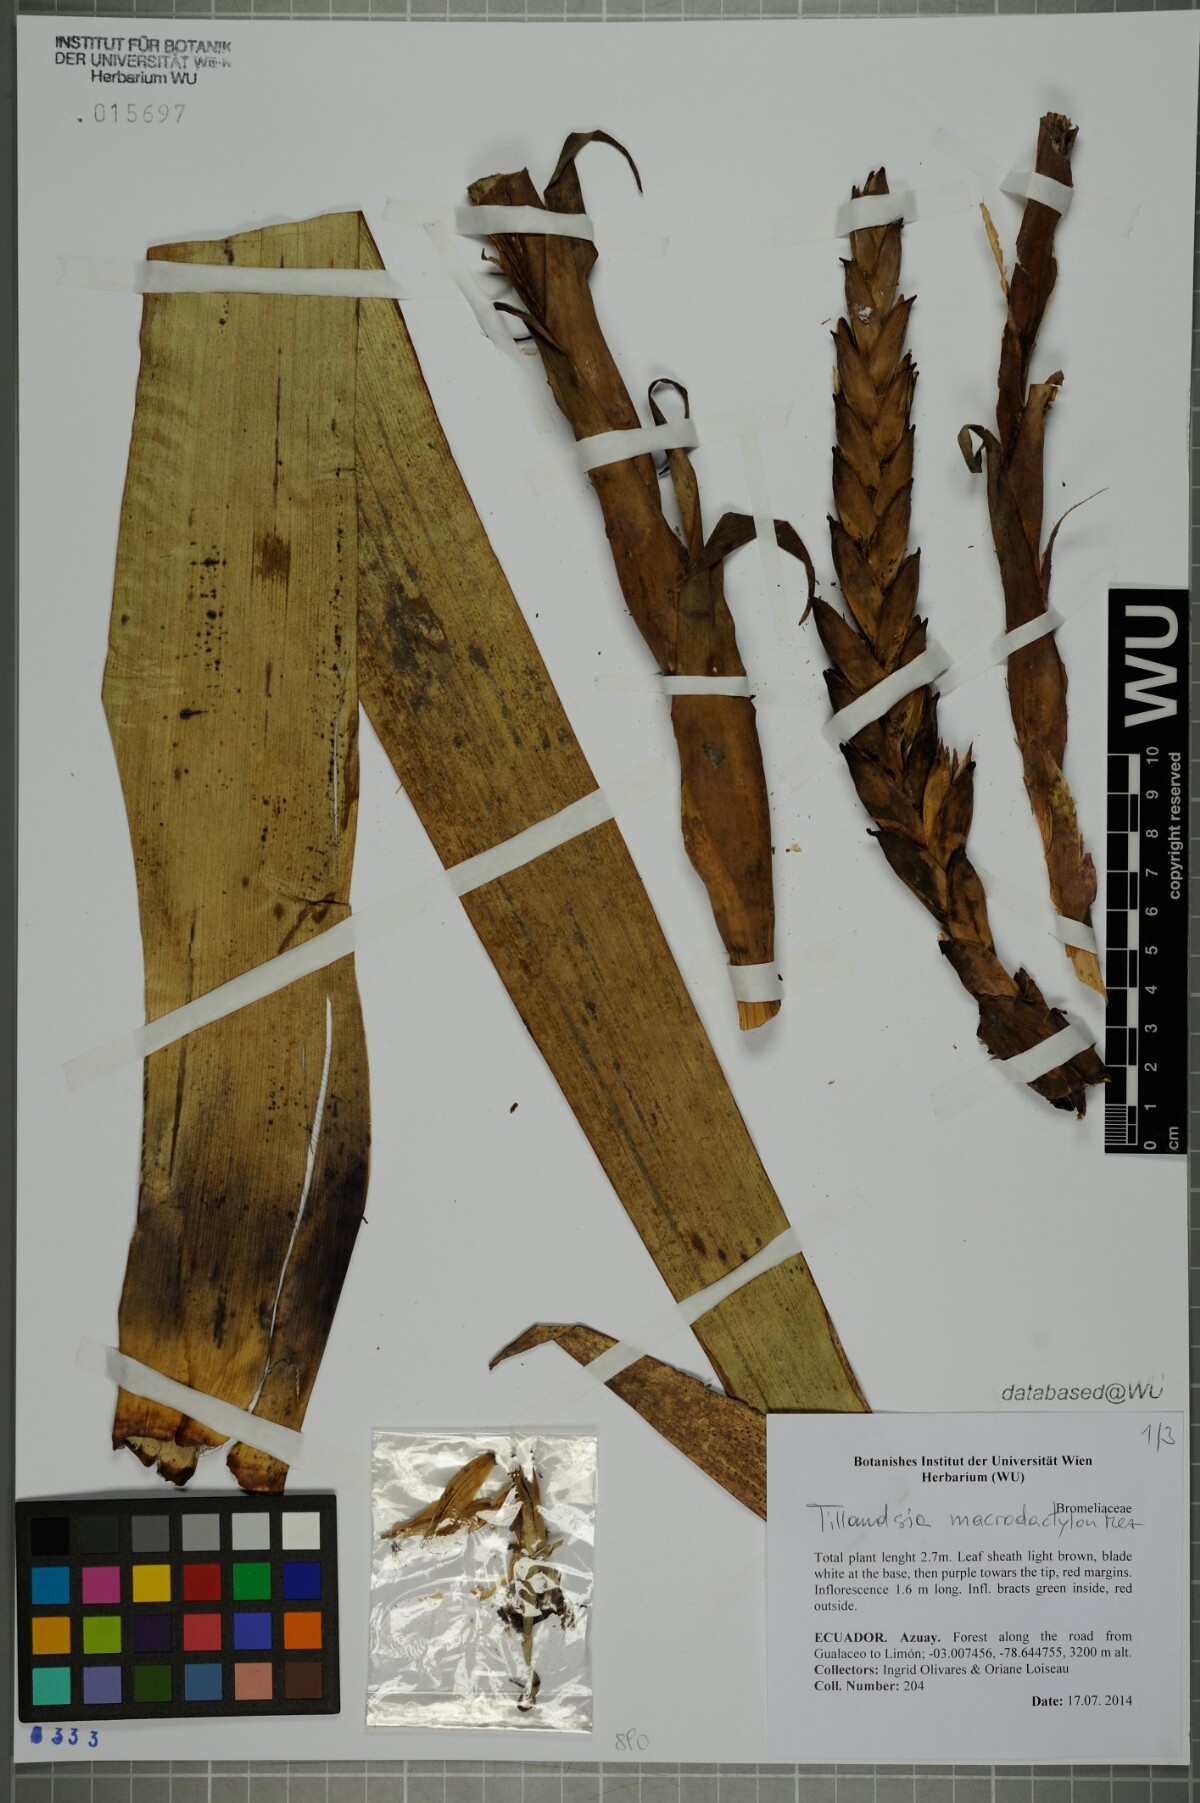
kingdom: Plantae
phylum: Tracheophyta
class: Liliopsida
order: Poales
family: Bromeliaceae
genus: Tillandsia
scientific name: Tillandsia macrodactylon
